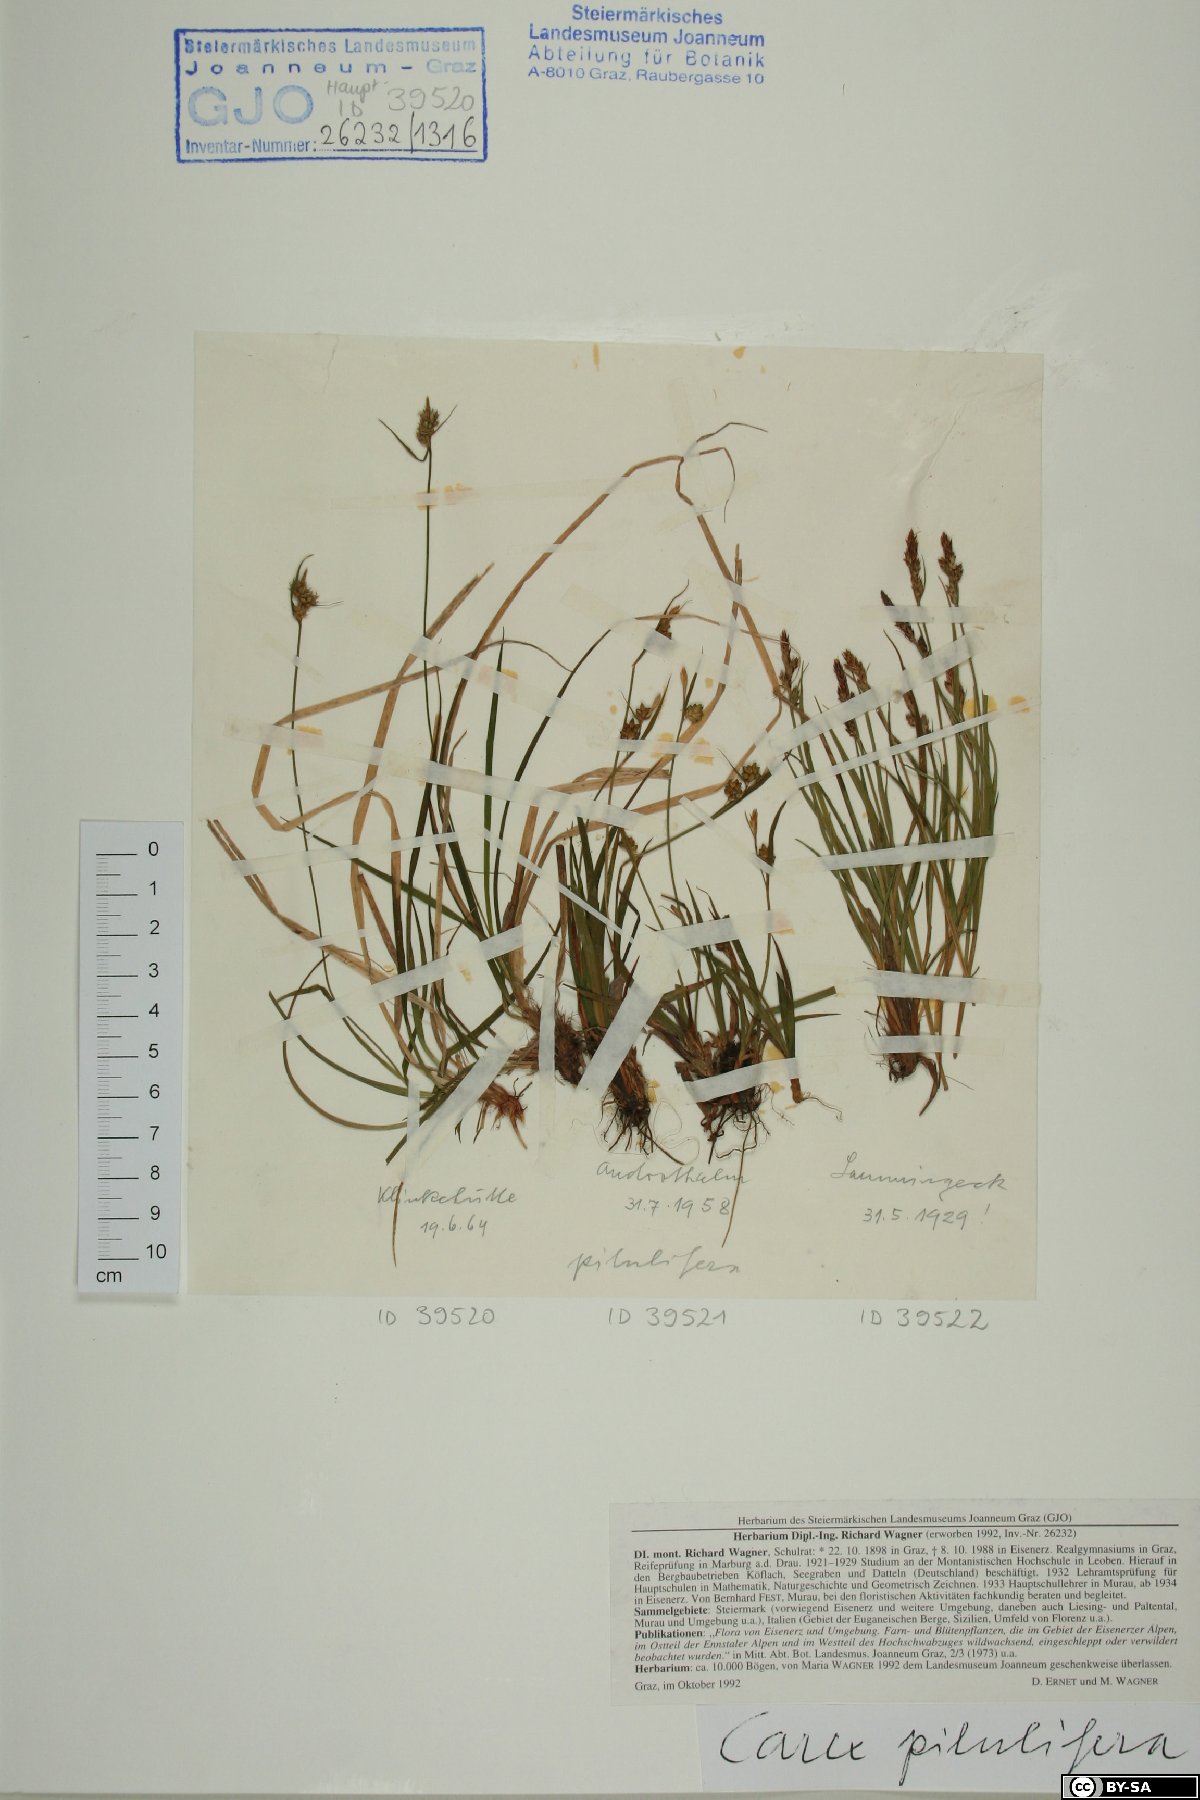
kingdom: Plantae
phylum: Tracheophyta
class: Liliopsida
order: Poales
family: Cyperaceae
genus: Carex
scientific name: Carex pilulifera
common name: Pill sedge
